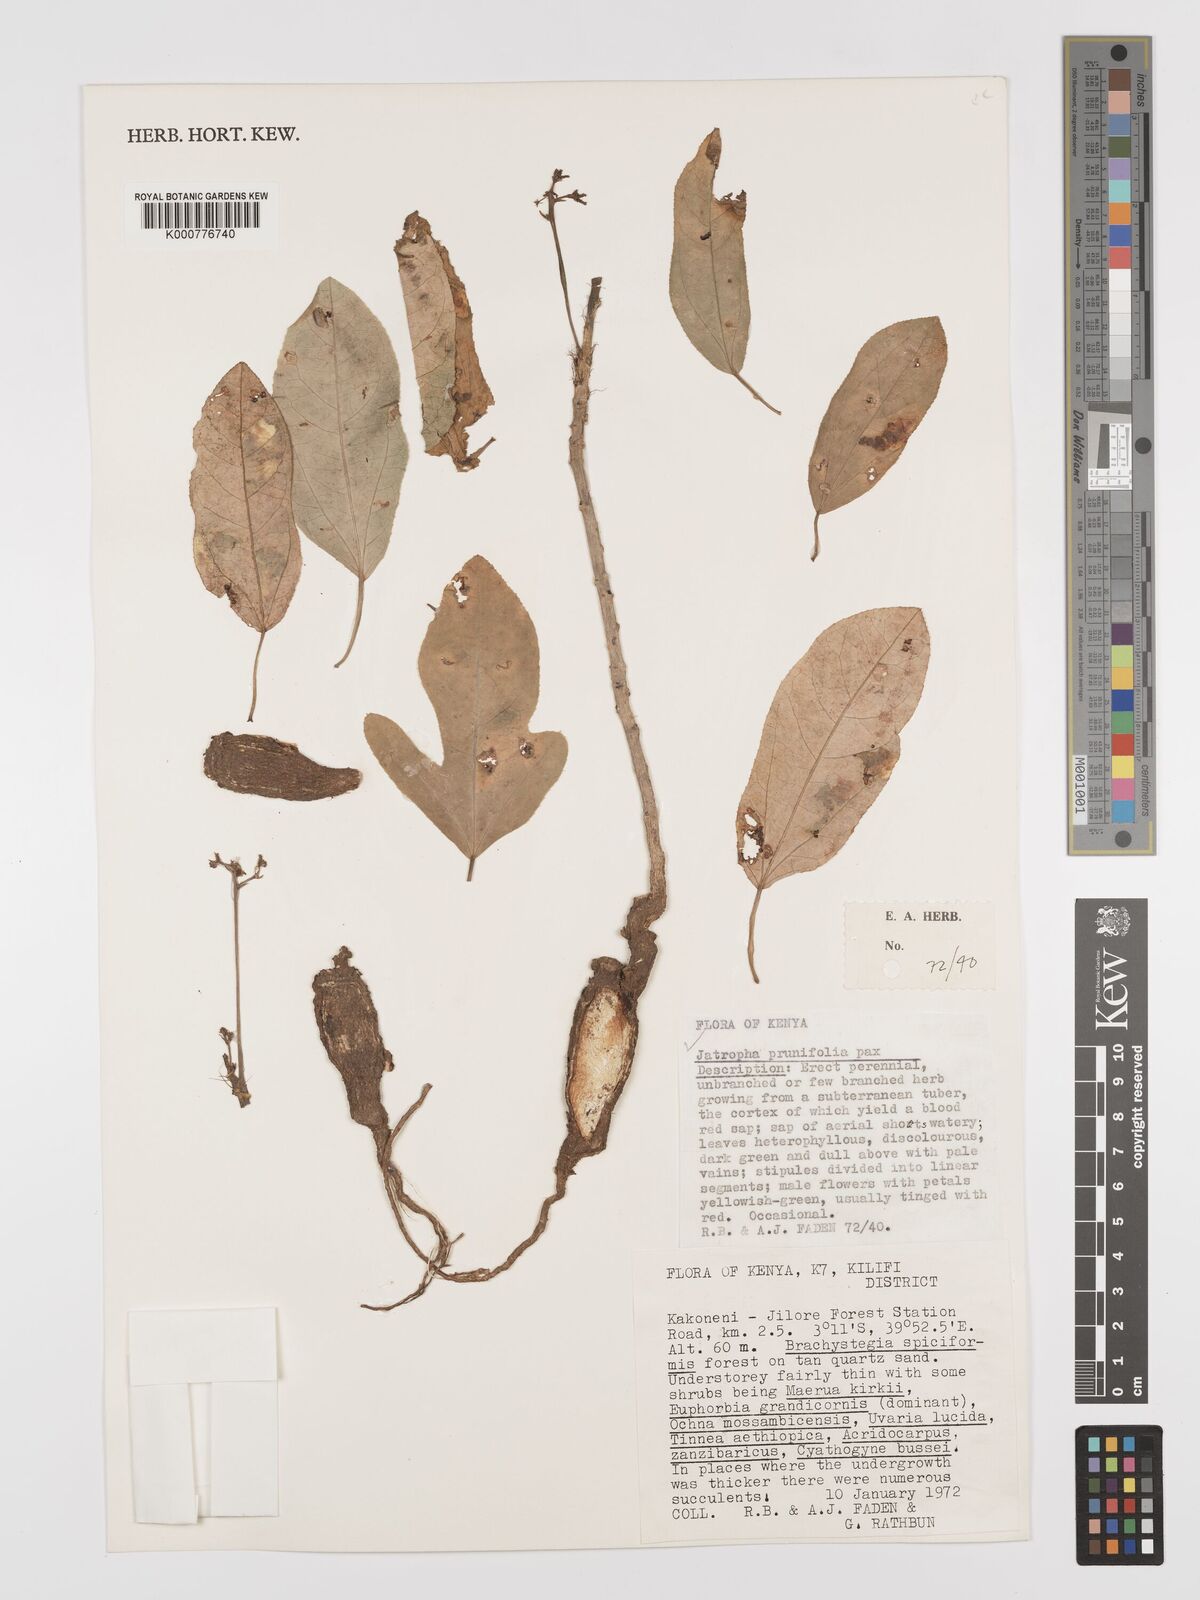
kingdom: Plantae
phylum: Tracheophyta
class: Magnoliopsida
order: Malpighiales
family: Euphorbiaceae
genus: Jatropha
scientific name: Jatropha
